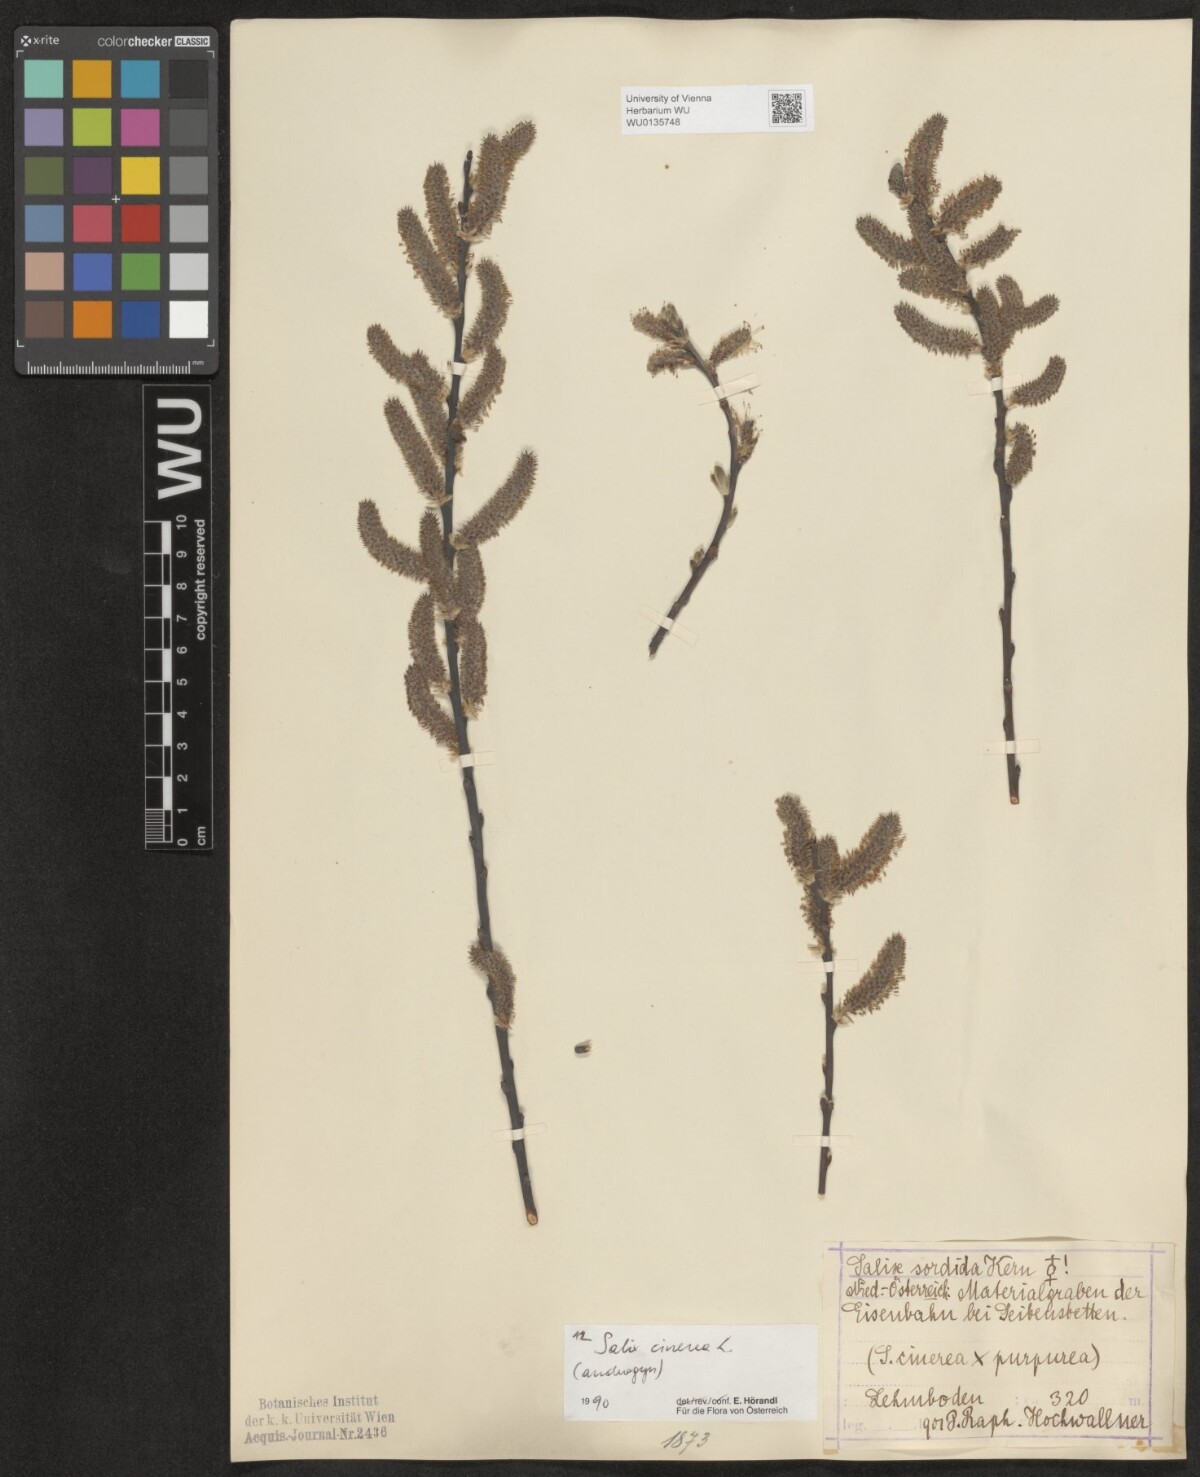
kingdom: Plantae
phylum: Tracheophyta
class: Magnoliopsida
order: Malpighiales
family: Salicaceae
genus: Salix
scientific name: Salix cinerea
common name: Common sallow
